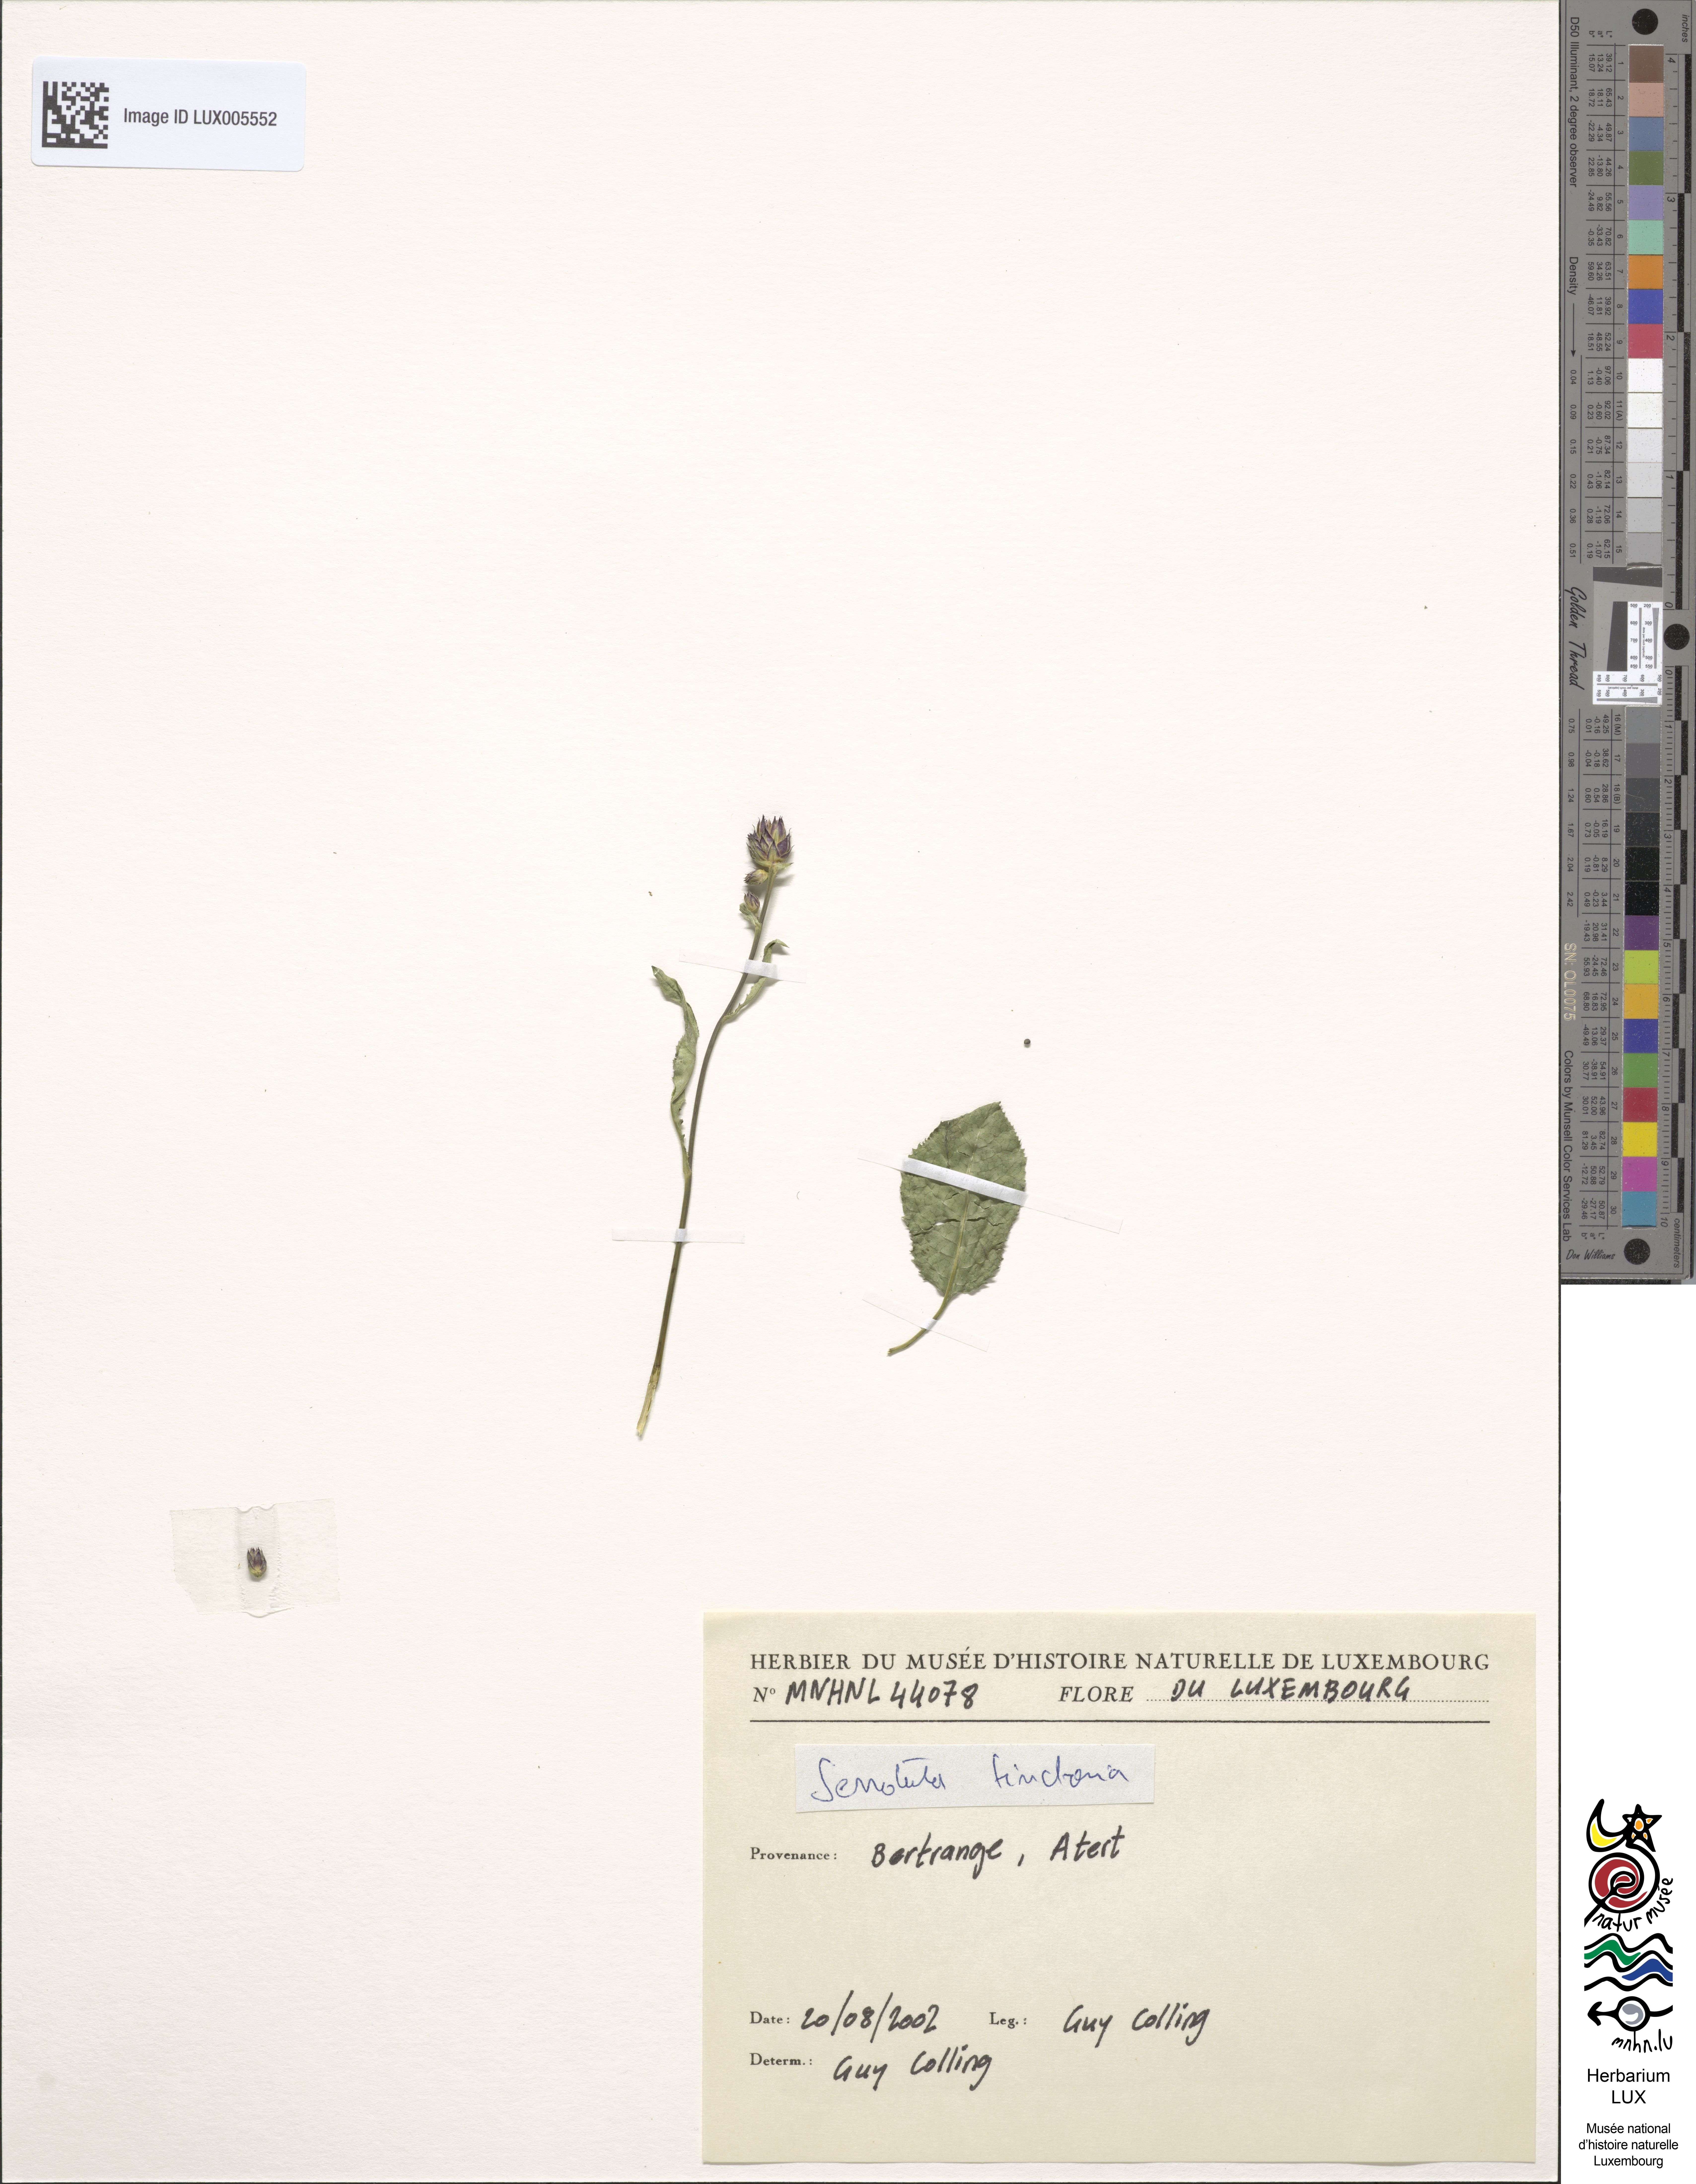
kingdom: Plantae
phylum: Tracheophyta
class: Magnoliopsida
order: Asterales
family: Asteraceae
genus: Serratula
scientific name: Serratula tinctoria
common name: Saw-wort
